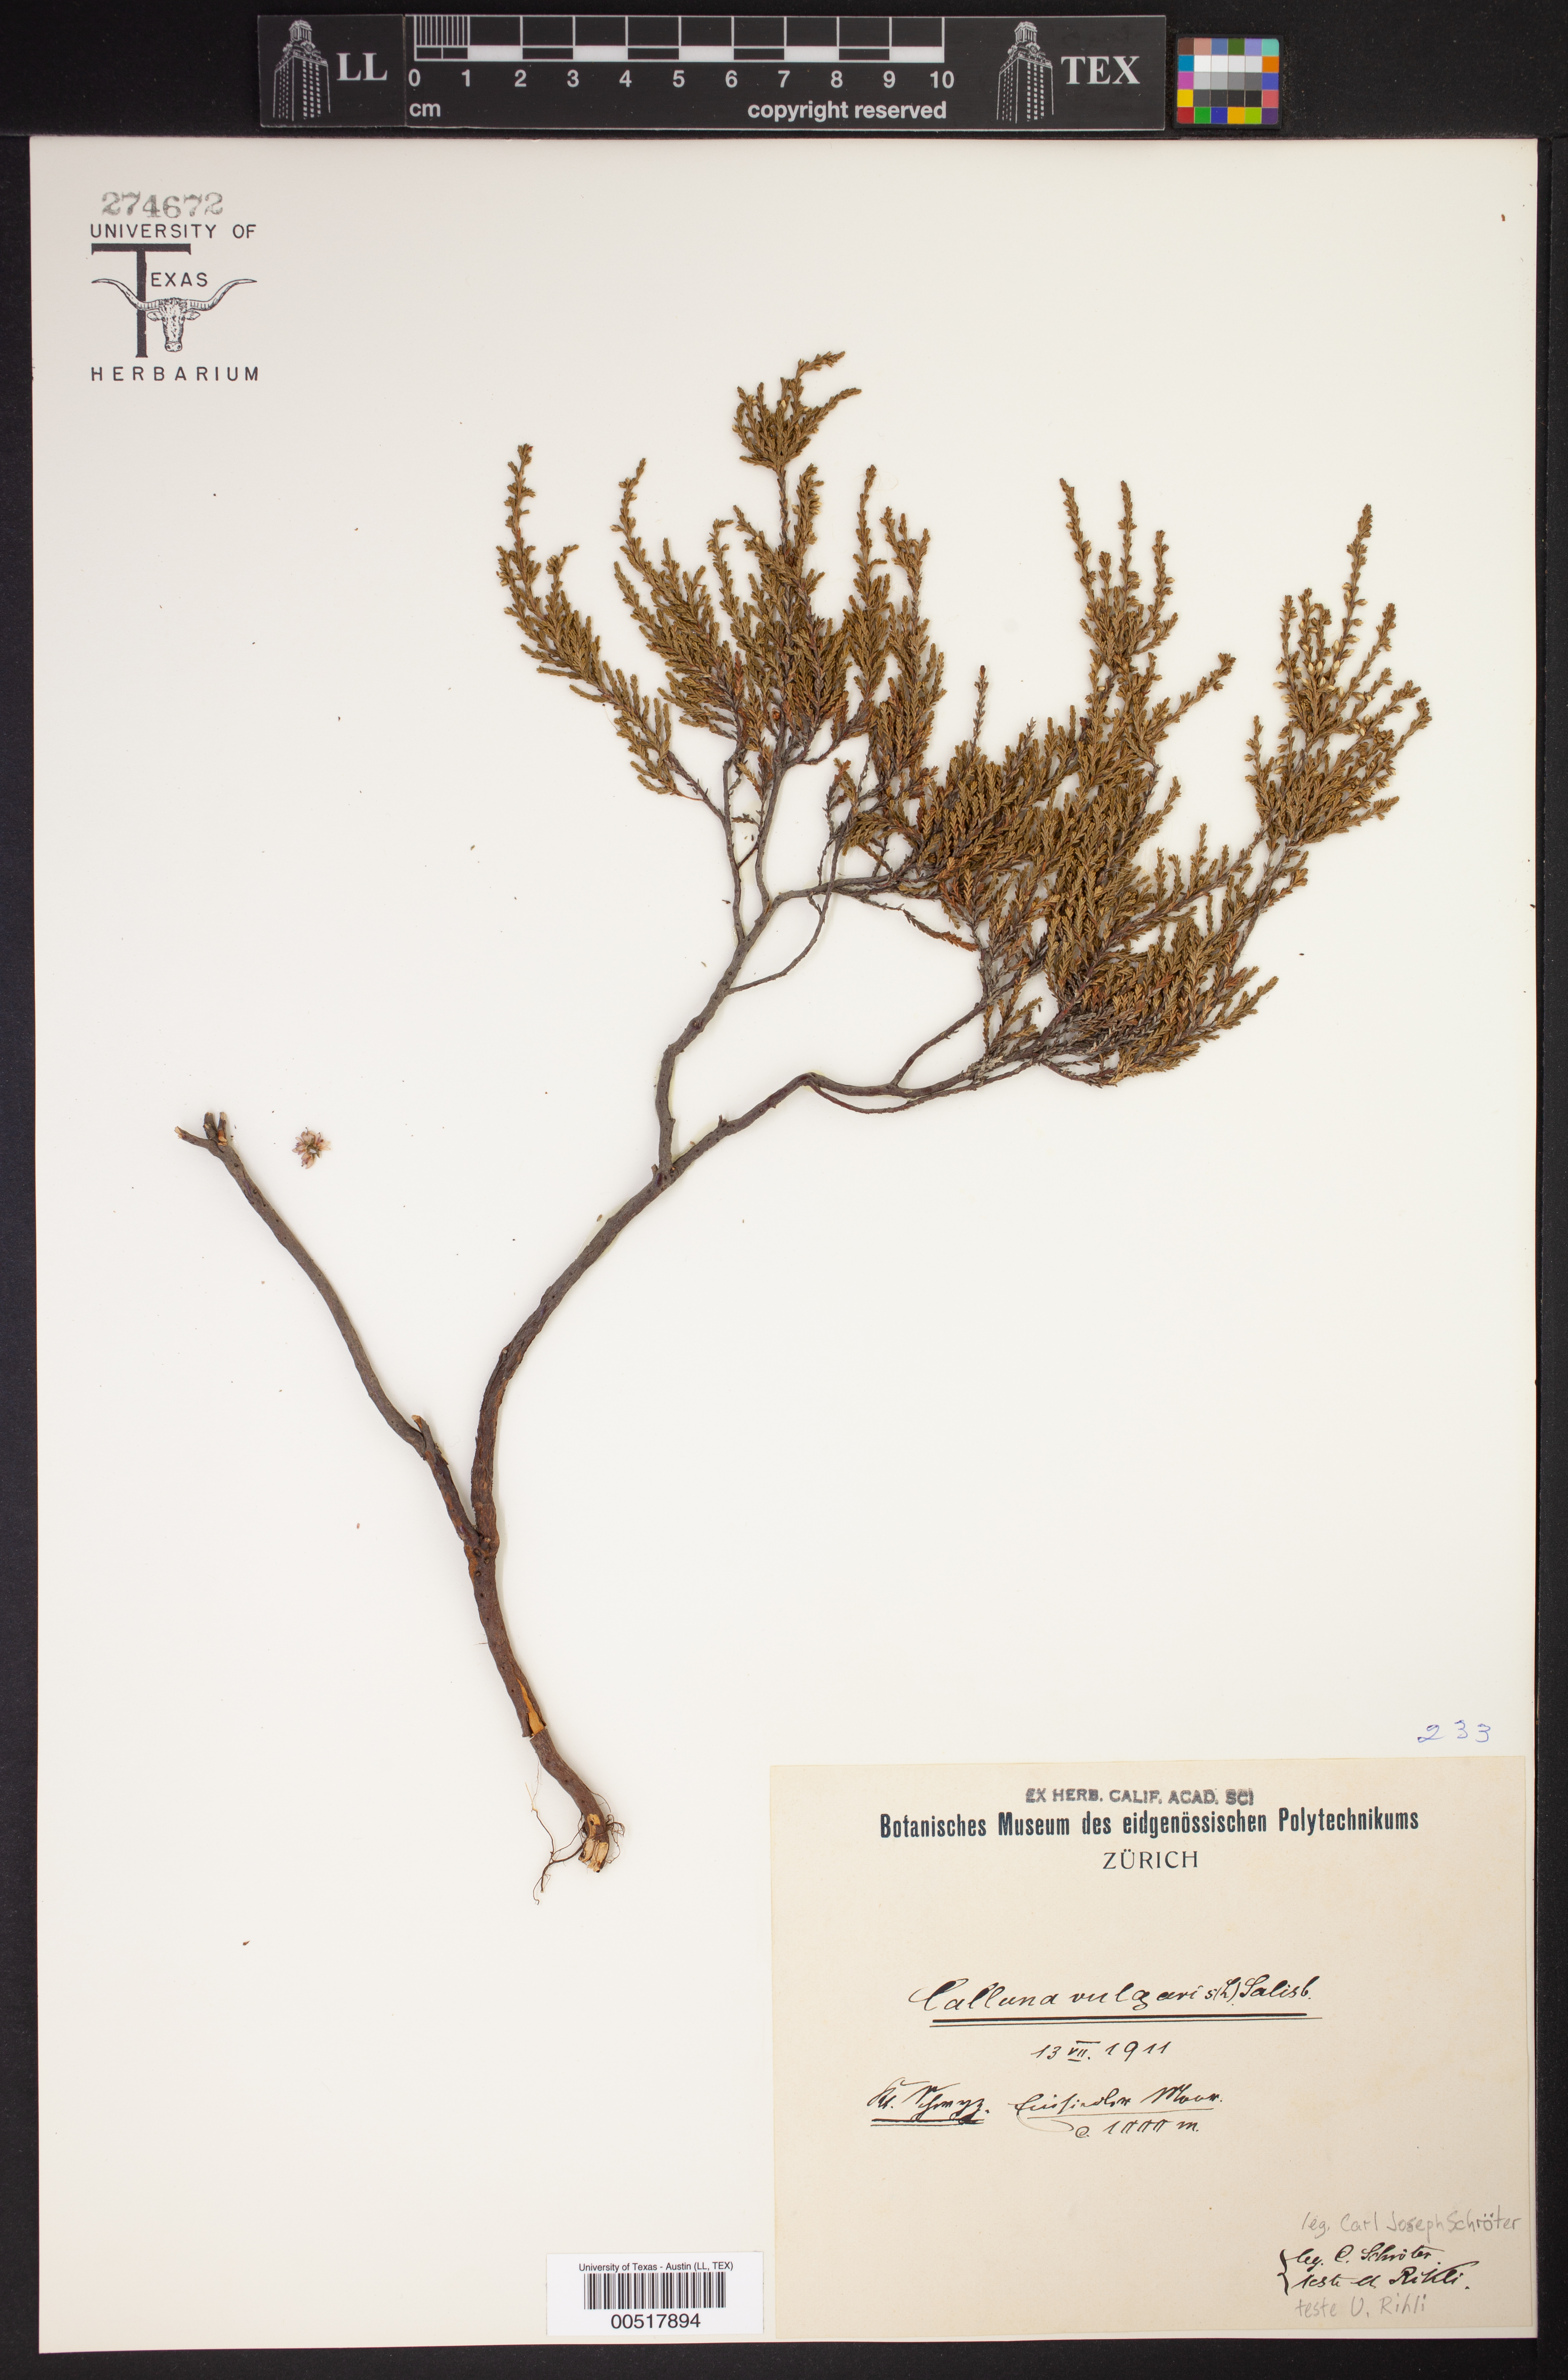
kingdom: Plantae
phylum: Tracheophyta
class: Magnoliopsida
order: Ericales
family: Ericaceae
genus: Calluna
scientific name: Calluna vulgaris
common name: Heather
